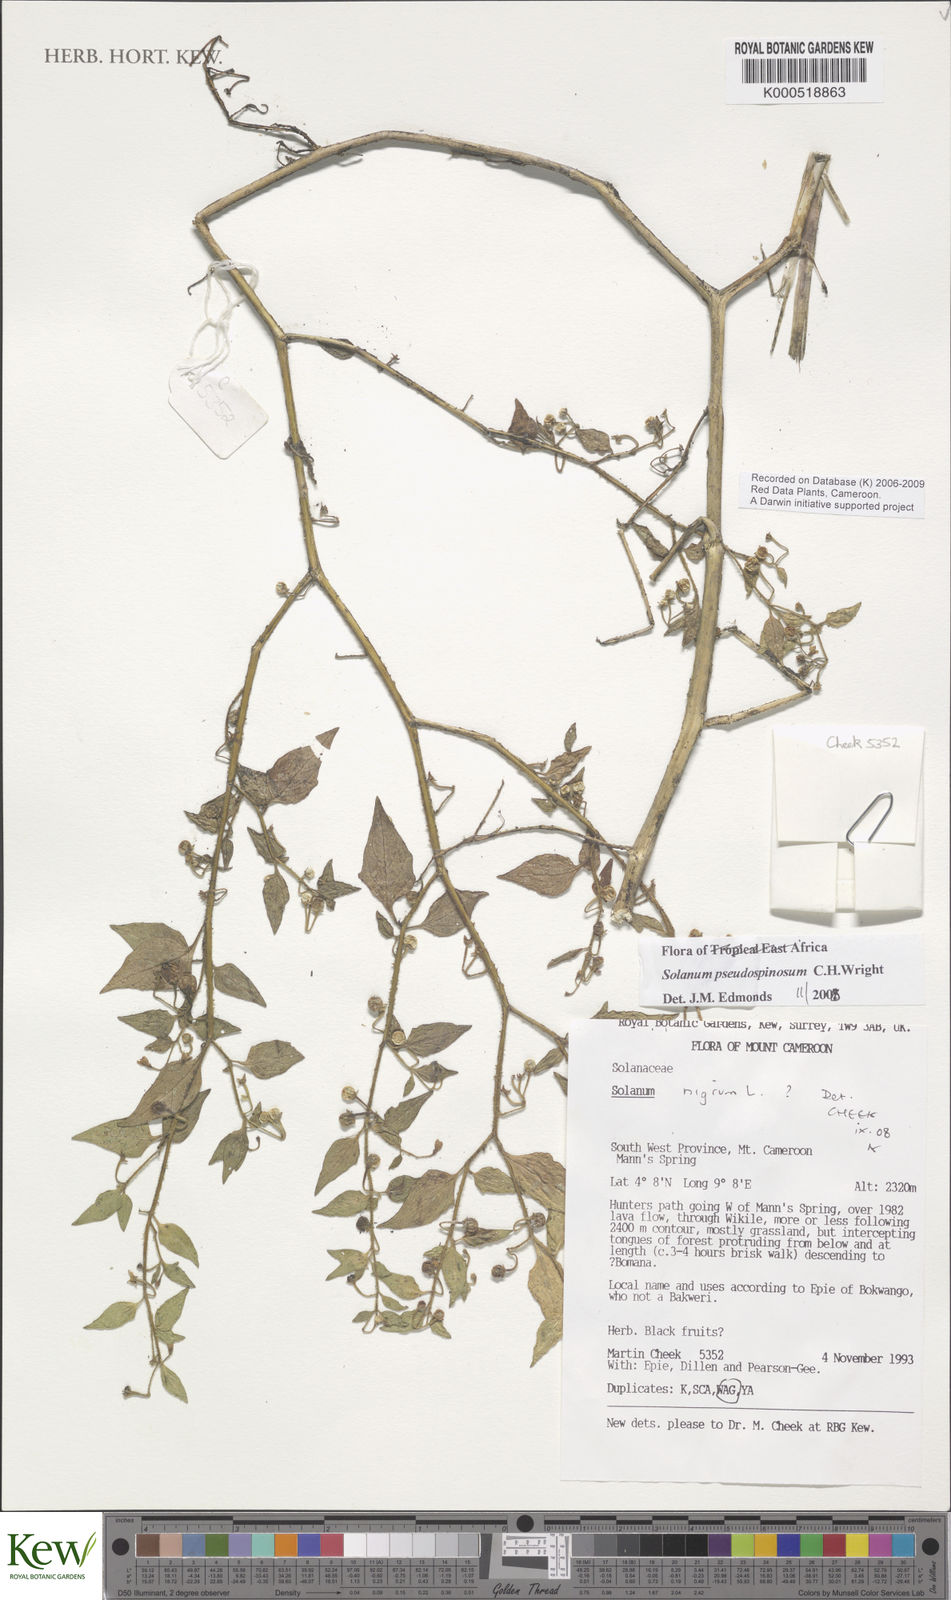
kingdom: Plantae
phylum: Tracheophyta
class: Magnoliopsida
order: Solanales
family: Solanaceae
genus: Solanum
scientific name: Solanum pseudospinosum
